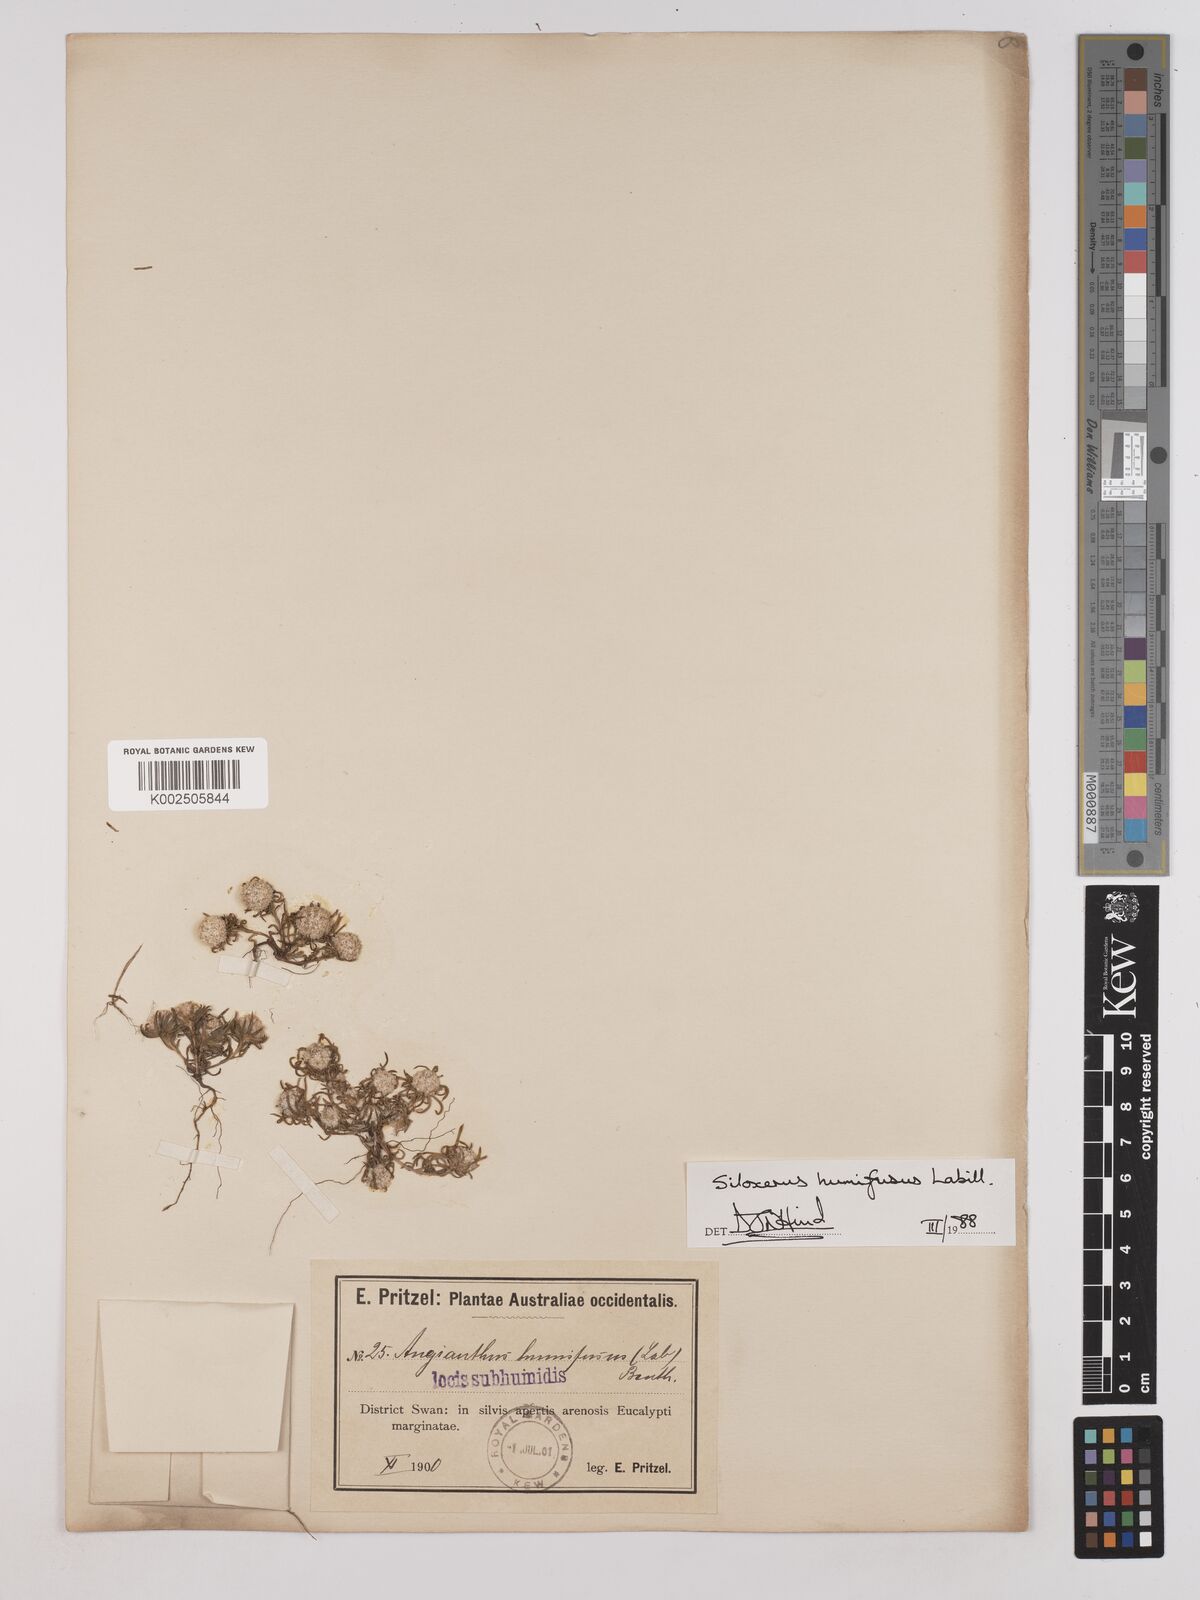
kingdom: Plantae
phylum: Tracheophyta
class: Magnoliopsida
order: Asterales
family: Asteraceae
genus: Siloxerus
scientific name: Siloxerus humifusus
